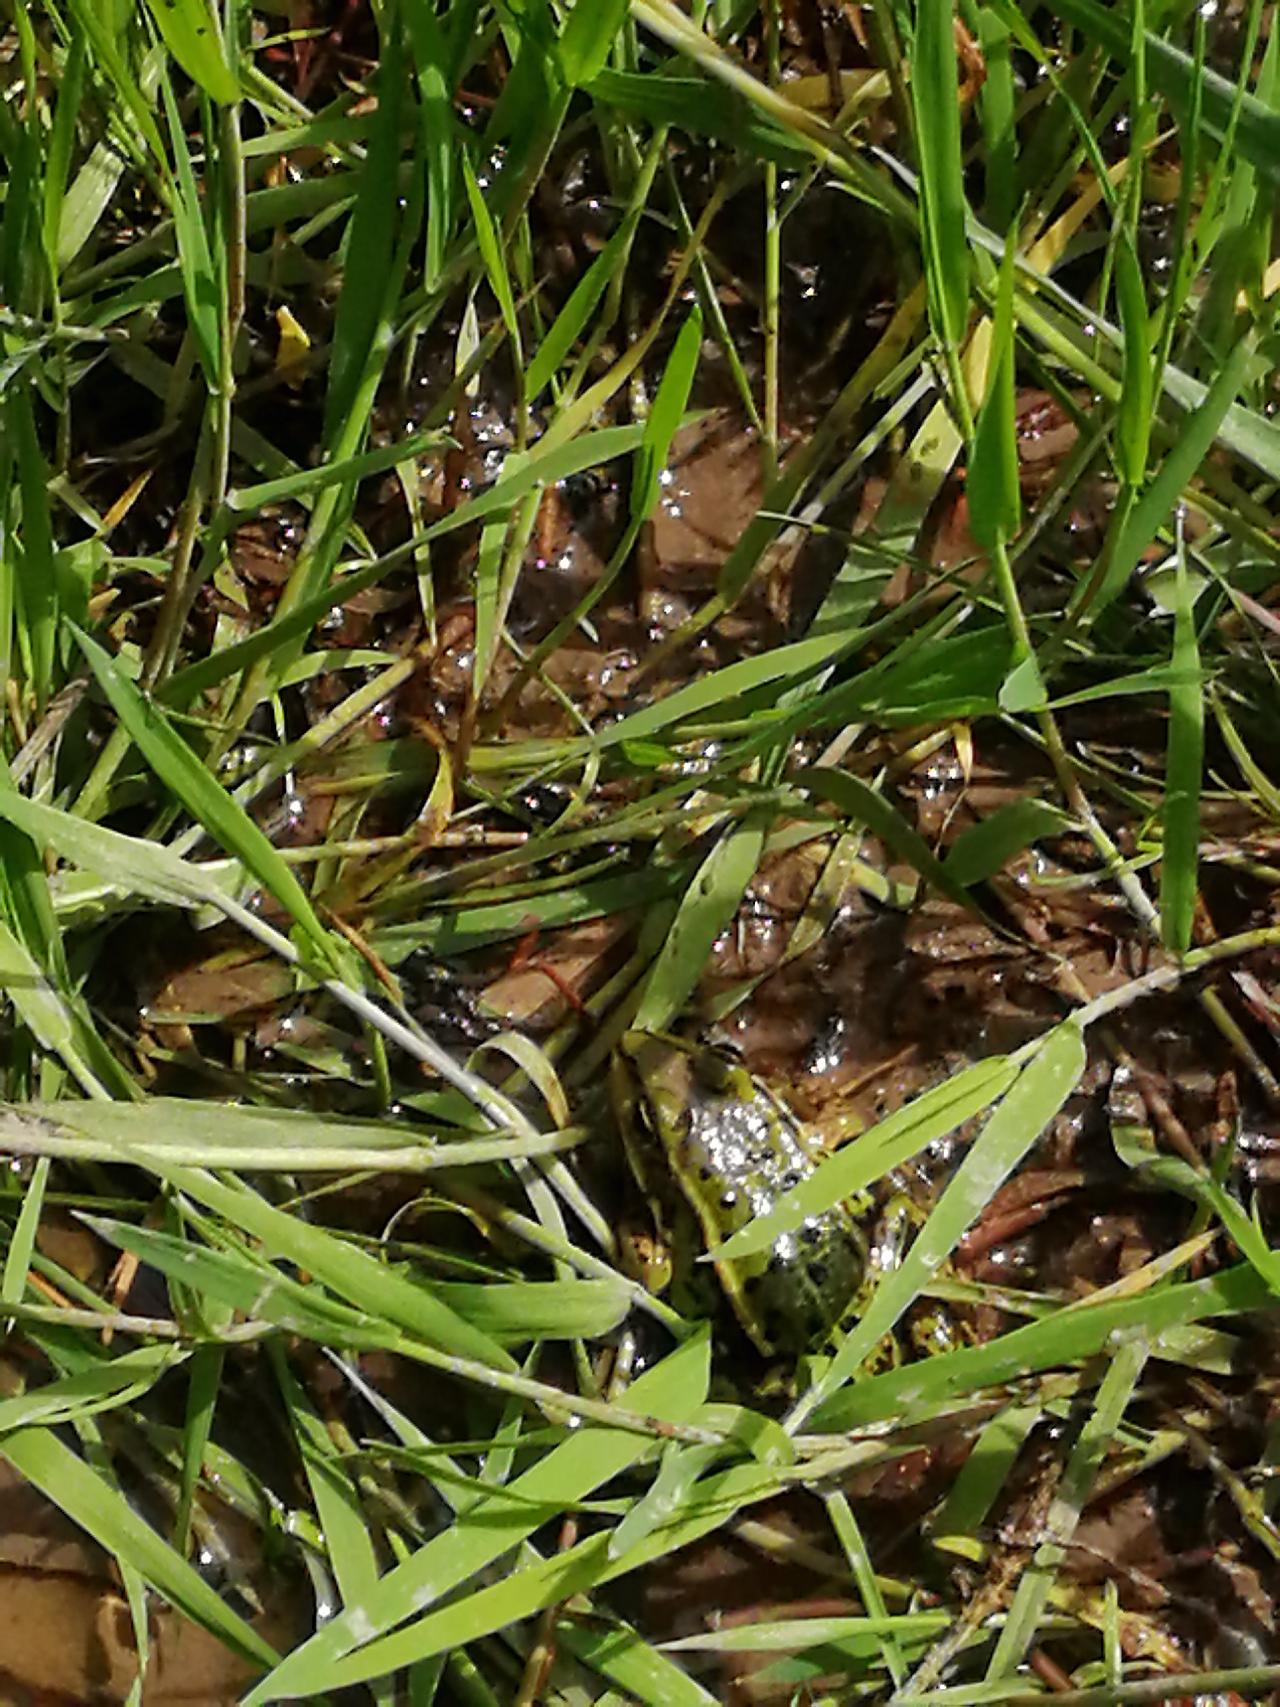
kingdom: Animalia
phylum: Chordata
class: Amphibia
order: Anura
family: Ranidae
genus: Pelophylax
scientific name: Pelophylax lessonae
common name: Grøn frø
